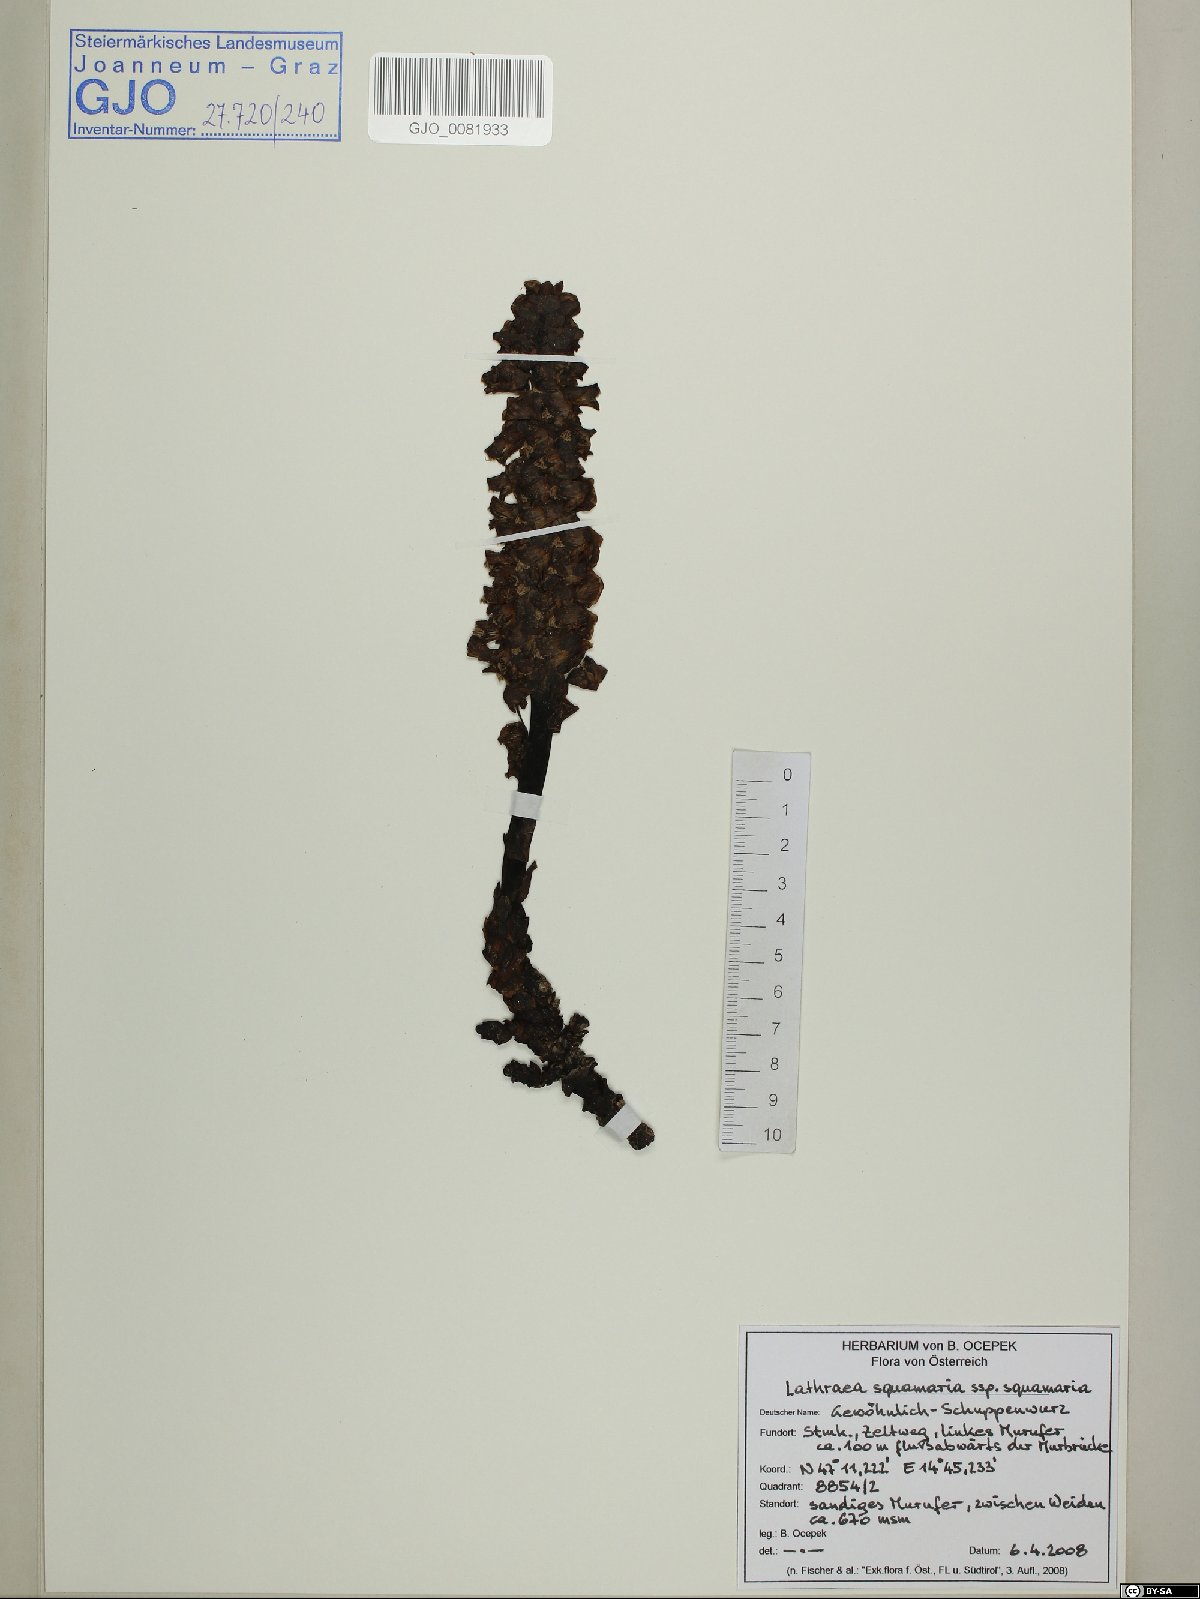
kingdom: Plantae
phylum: Tracheophyta
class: Magnoliopsida
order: Lamiales
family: Orobanchaceae
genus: Lathraea
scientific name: Lathraea squamaria
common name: Toothwort
